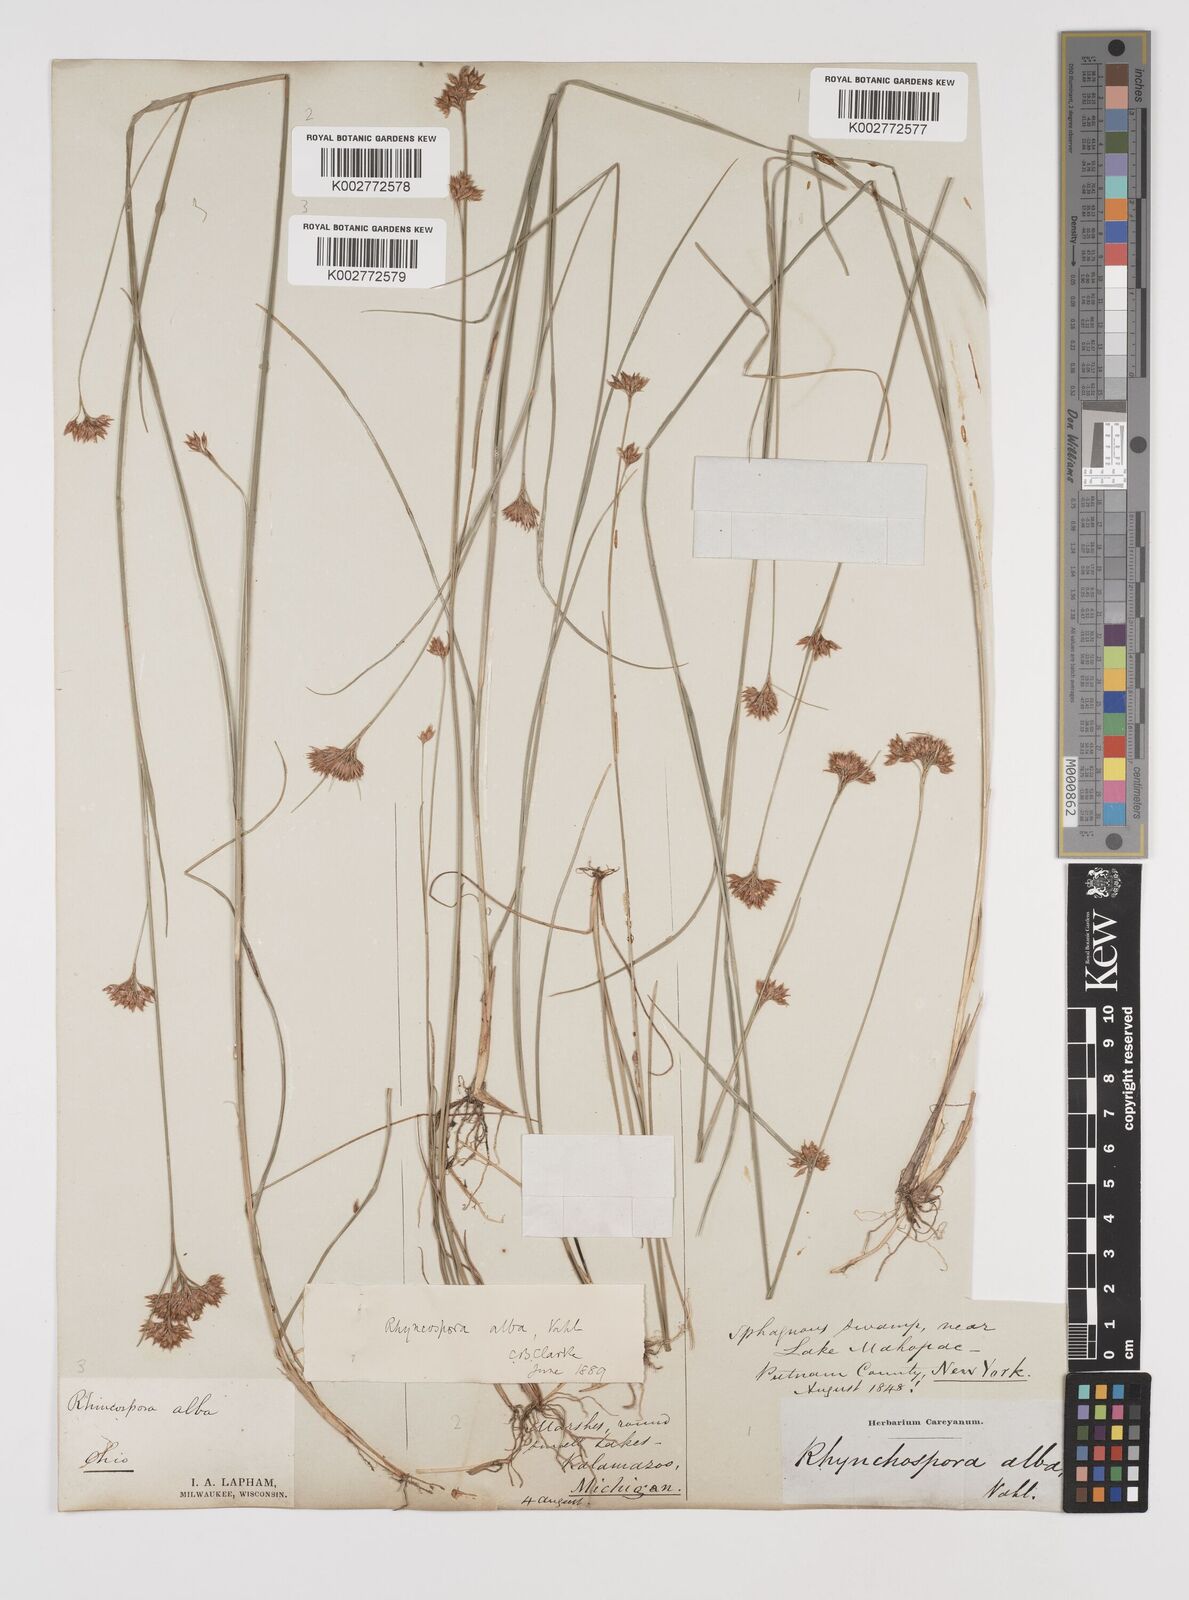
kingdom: Plantae
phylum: Tracheophyta
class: Liliopsida
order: Poales
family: Cyperaceae
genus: Rhynchospora
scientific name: Rhynchospora alba
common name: White beak-sedge
